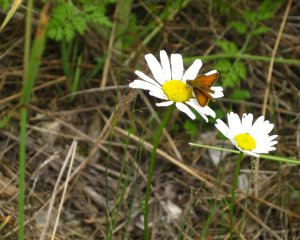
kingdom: Animalia
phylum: Arthropoda
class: Insecta
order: Lepidoptera
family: Hesperiidae
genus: Thymelicus
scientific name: Thymelicus lineola
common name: European Skipper
